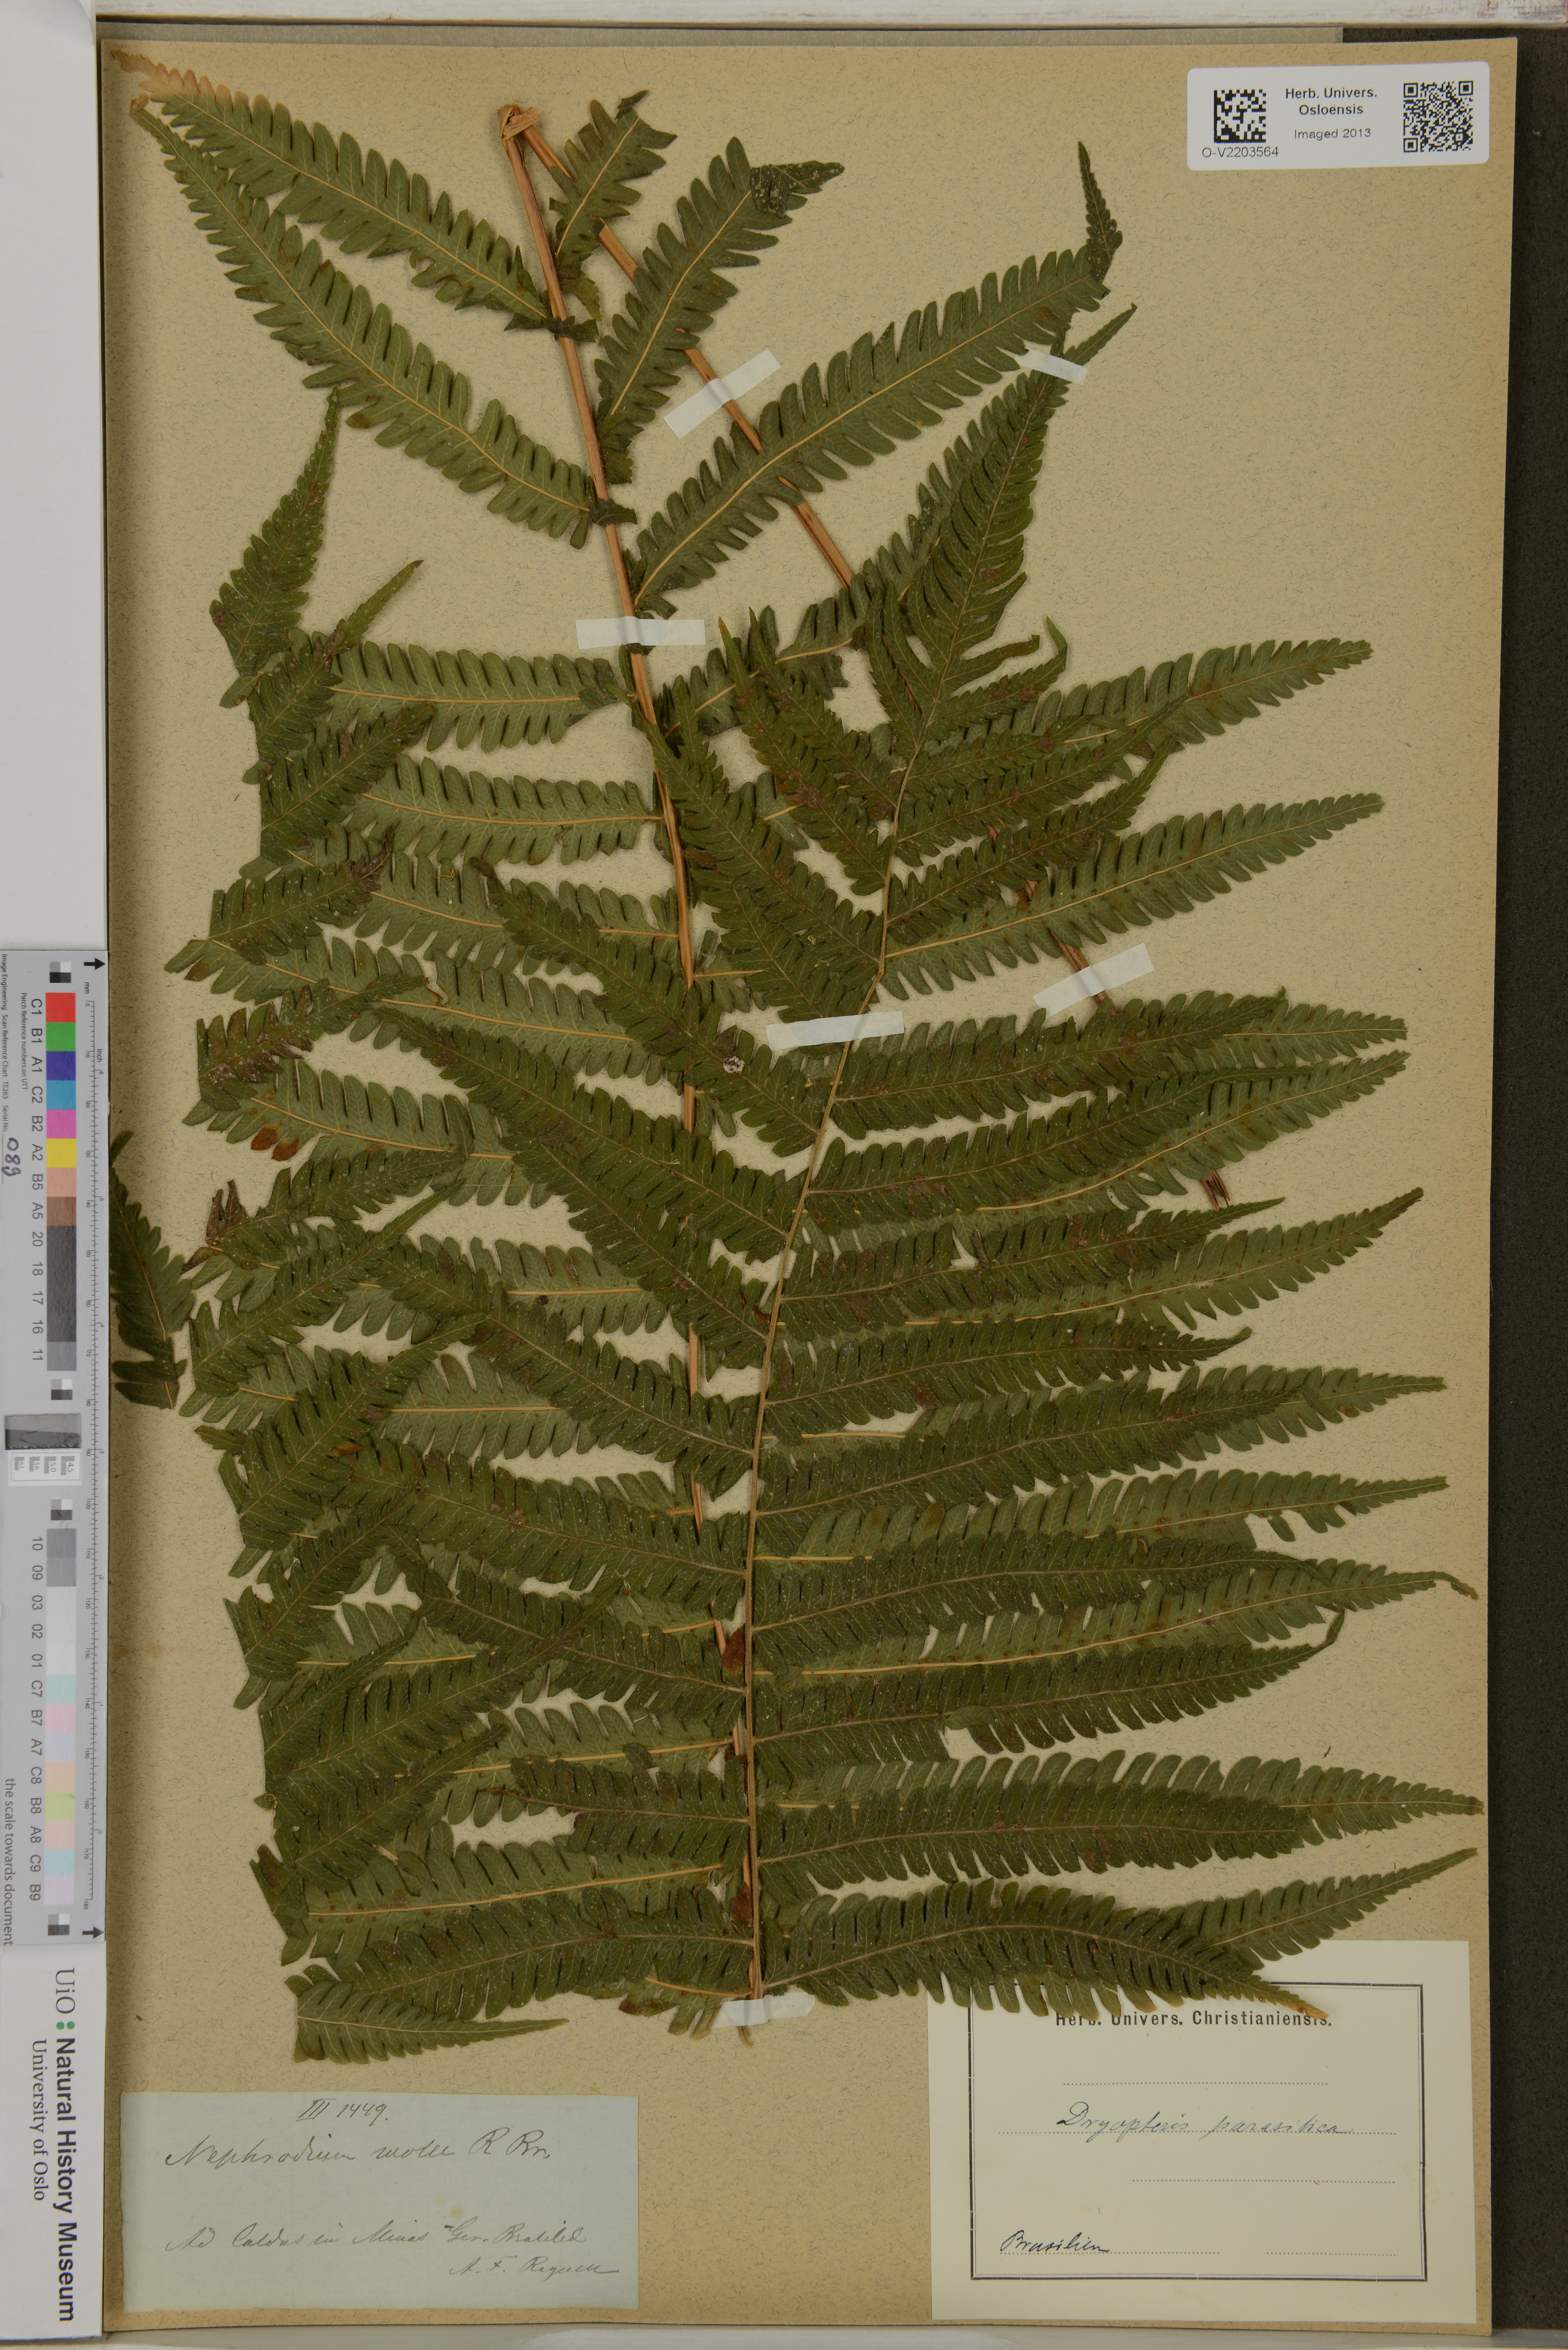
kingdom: Plantae
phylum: Tracheophyta
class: Polypodiopsida
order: Polypodiales
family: Dryopteridaceae
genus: Dryopteris
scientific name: Dryopteris parasitica
